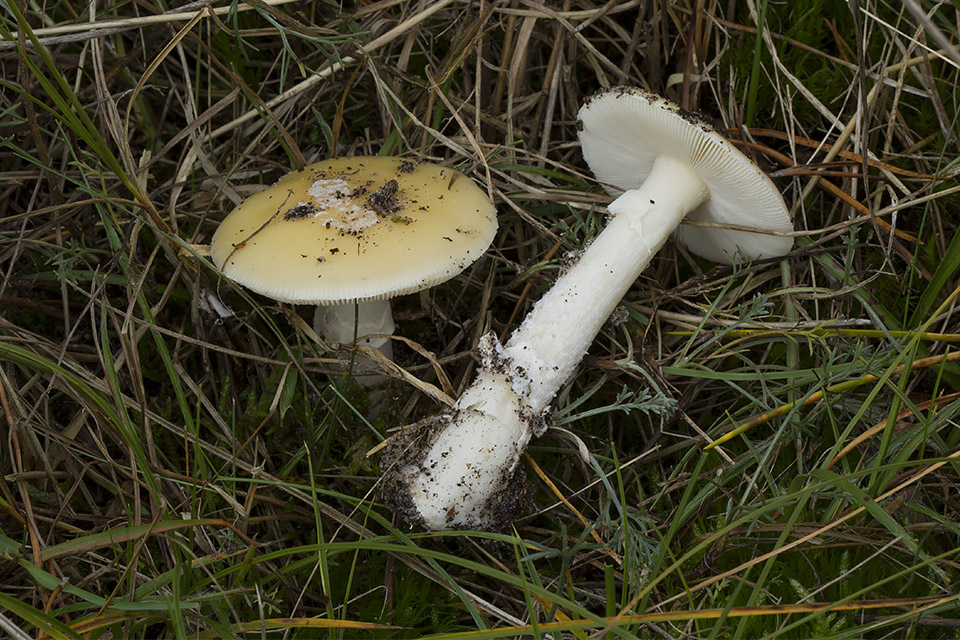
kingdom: Fungi
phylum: Basidiomycota
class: Agaricomycetes
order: Agaricales
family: Amanitaceae
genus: Amanita
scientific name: Amanita gemmata
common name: okkergul fluesvamp
